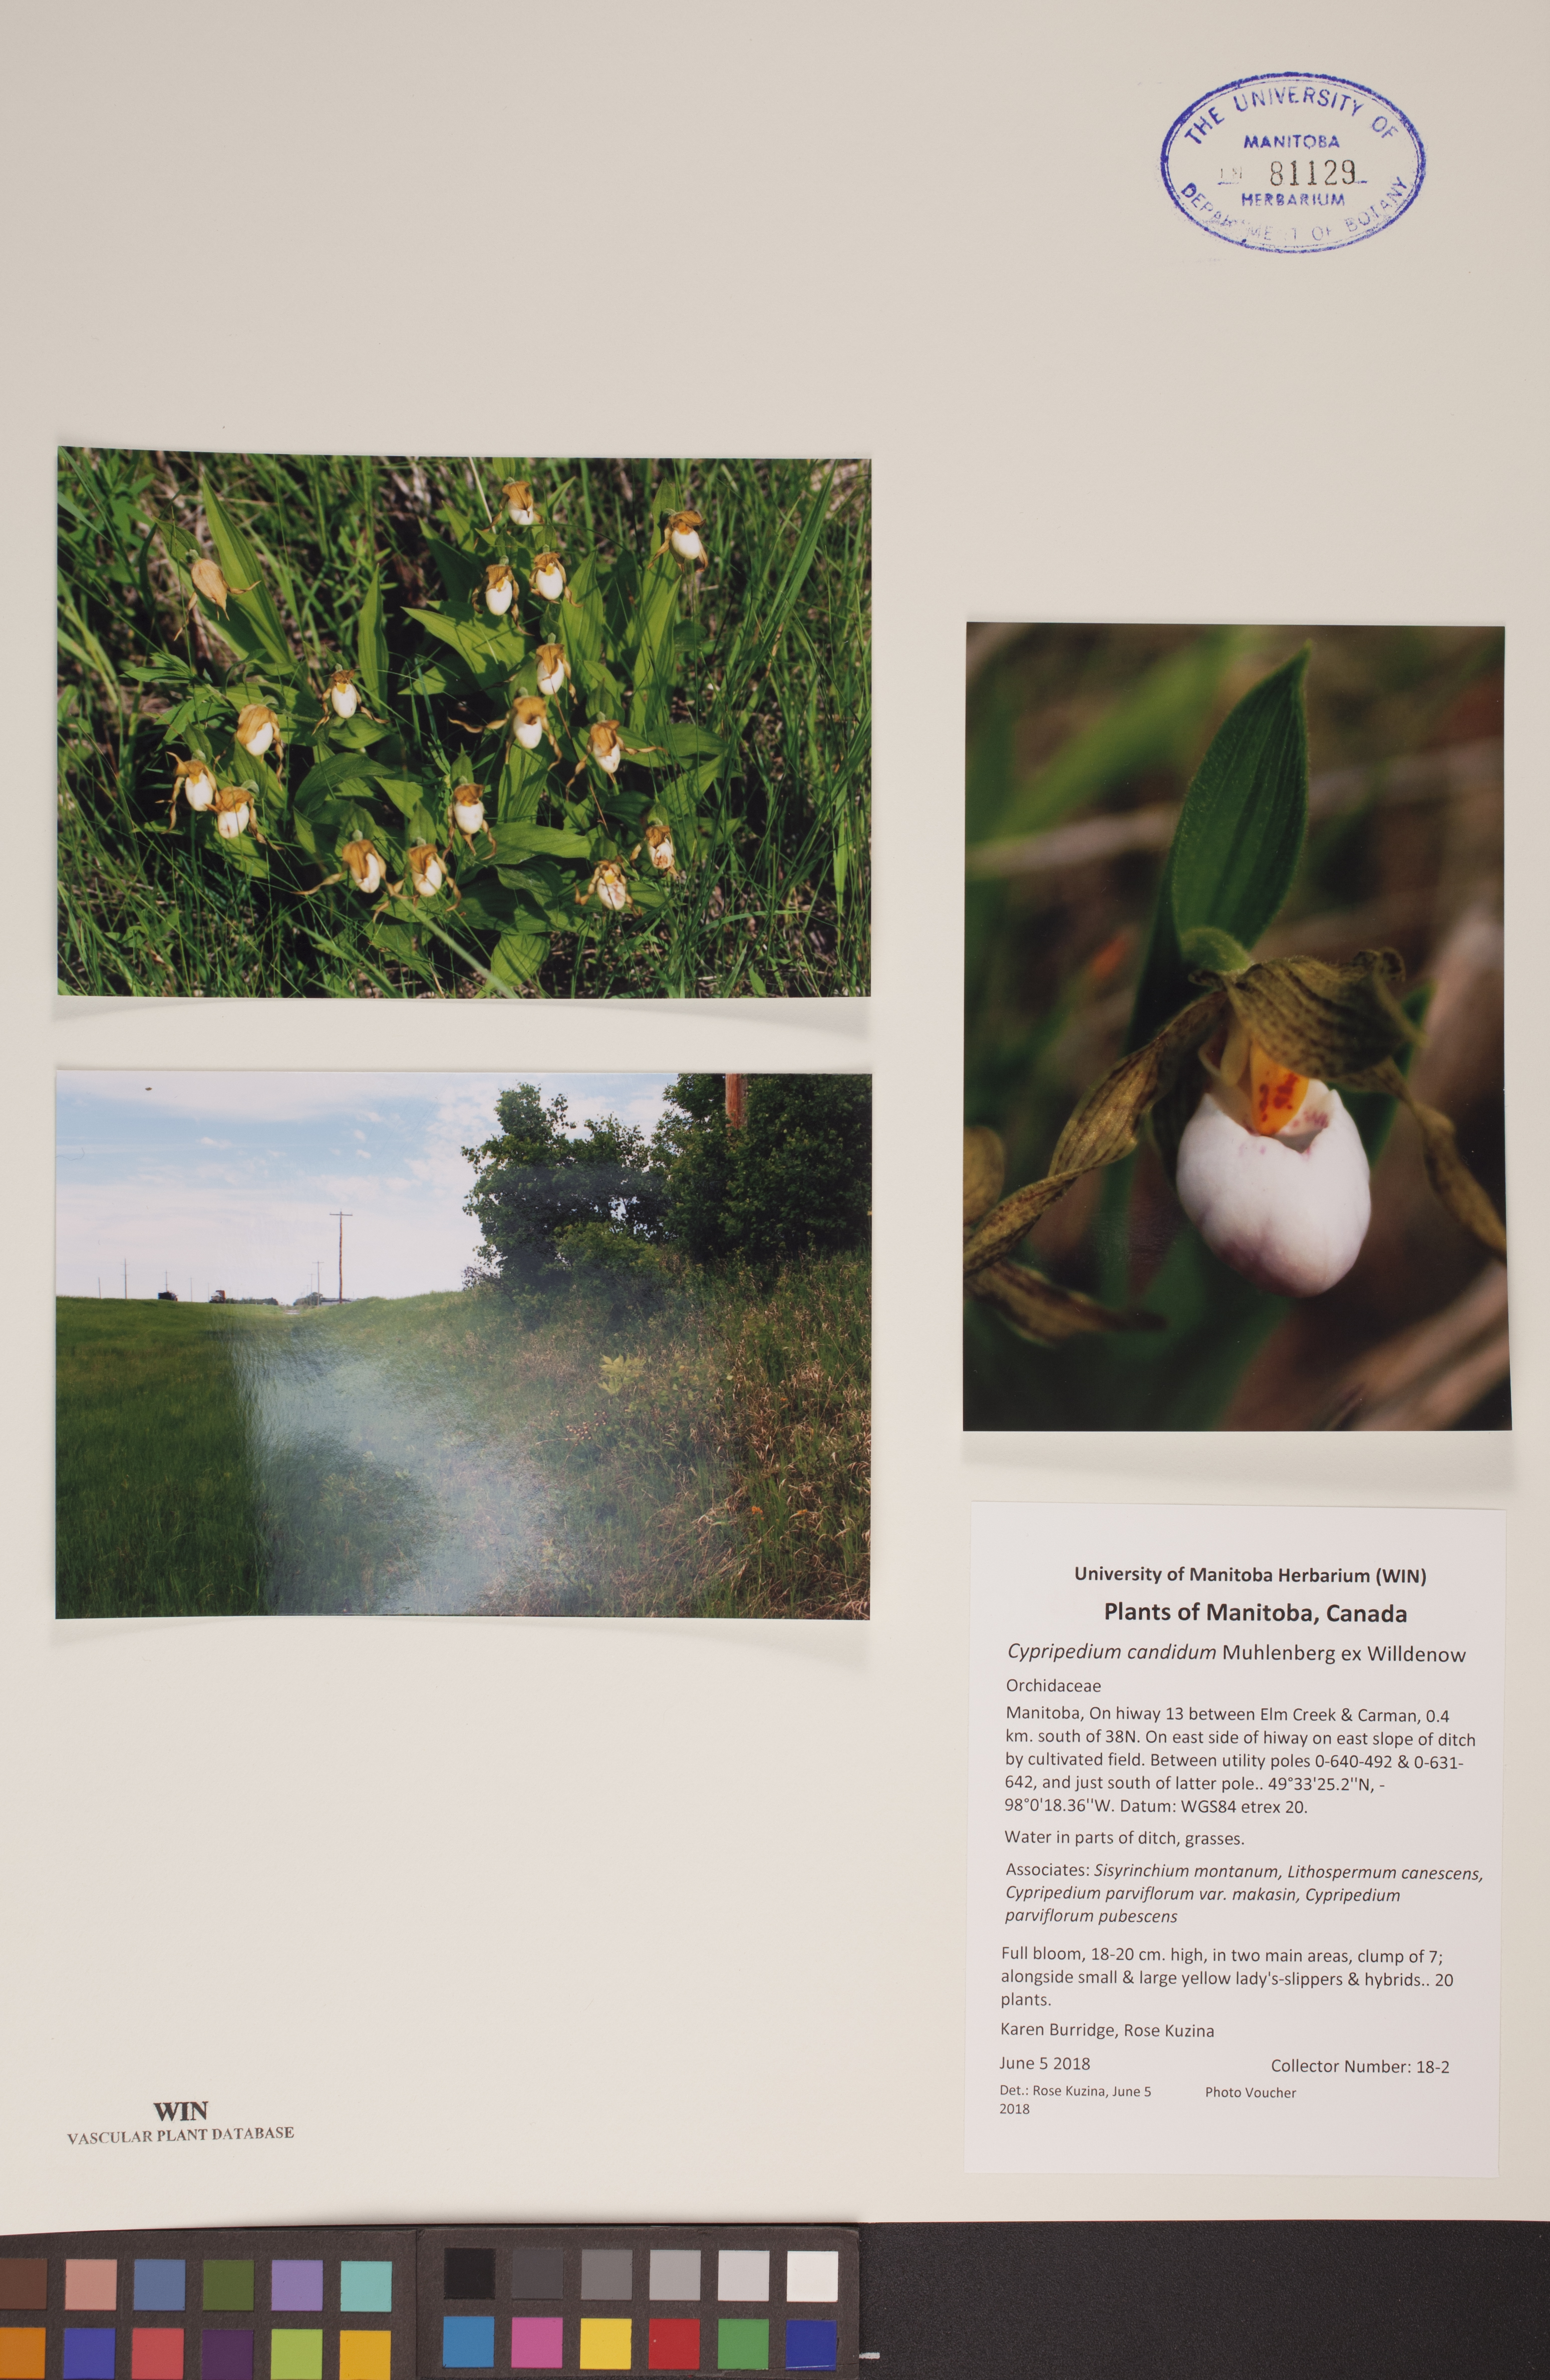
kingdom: Plantae
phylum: Tracheophyta
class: Liliopsida
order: Asparagales
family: Orchidaceae
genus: Cypripedium
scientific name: Cypripedium candidum
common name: White lady's-slipper
